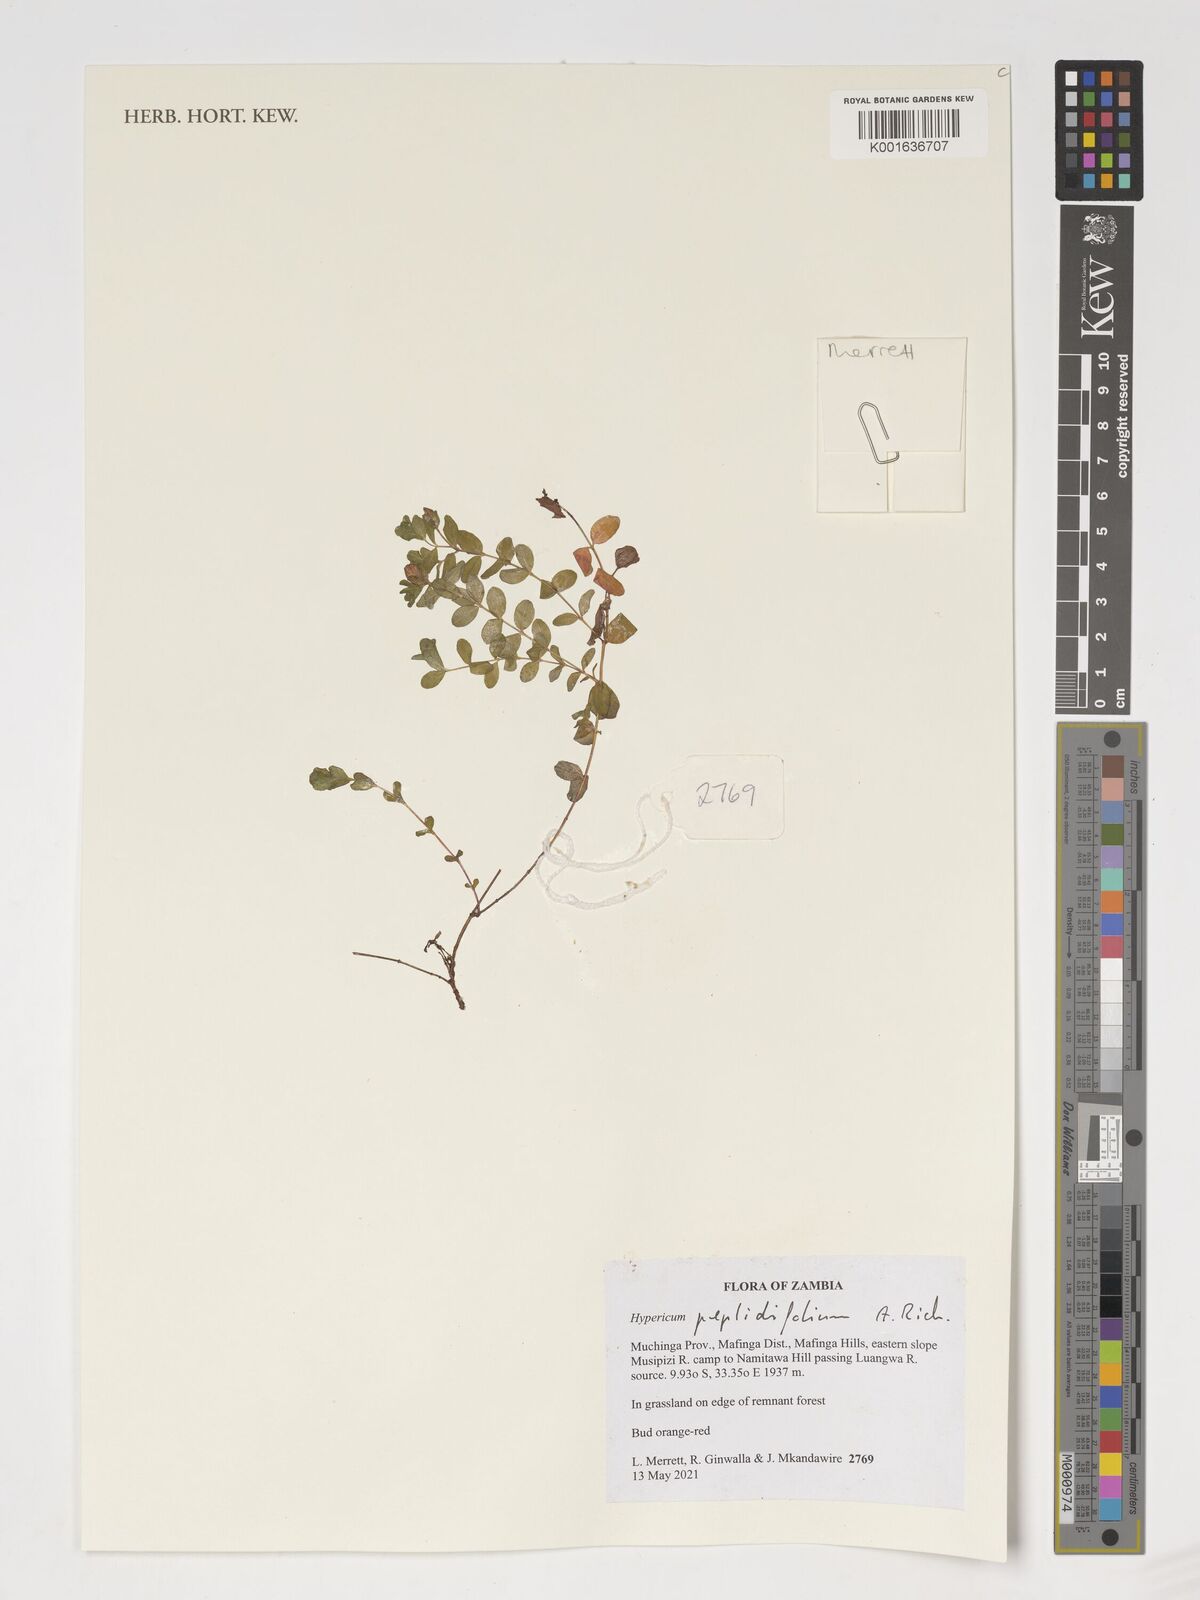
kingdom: Plantae
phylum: Tracheophyta
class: Magnoliopsida
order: Malpighiales
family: Hypericaceae
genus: Hypericum
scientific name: Hypericum peplidifolium
